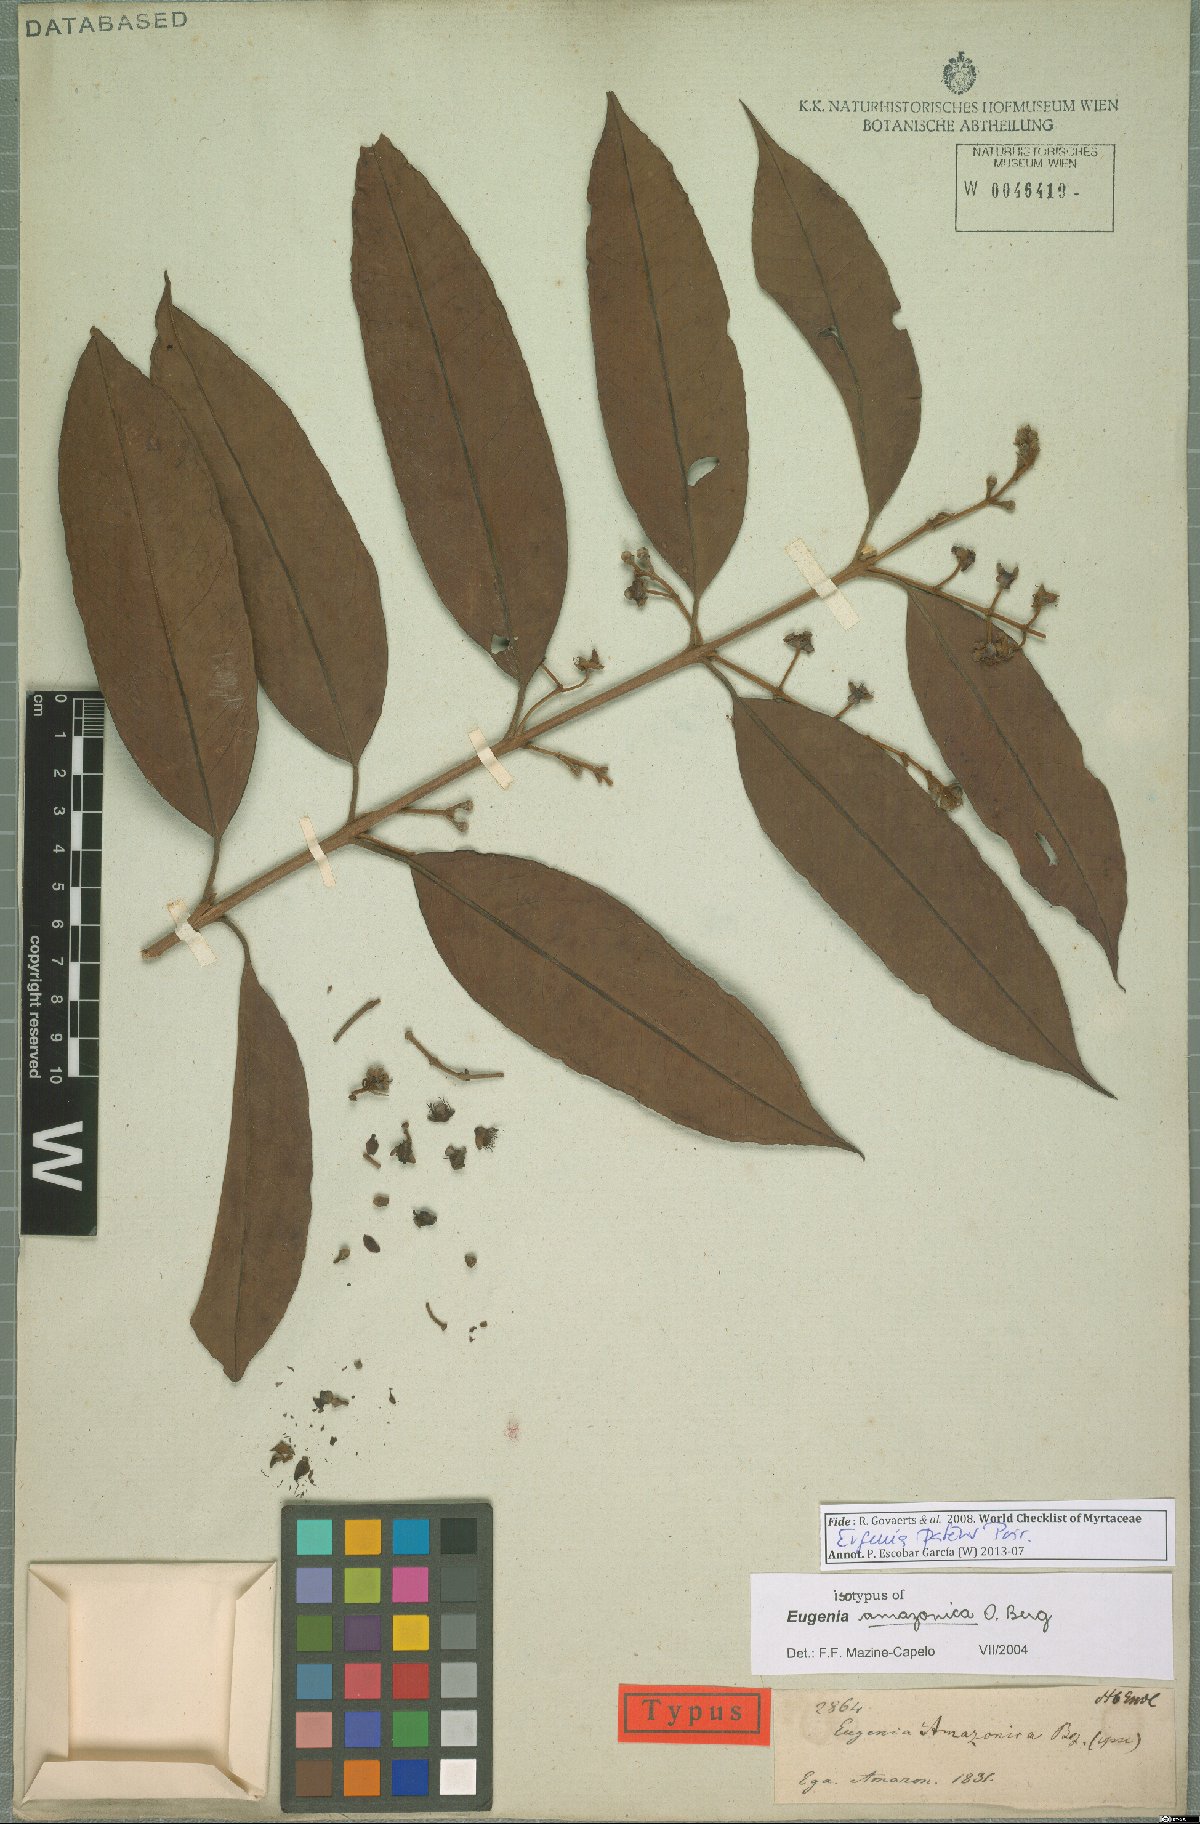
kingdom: Plantae
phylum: Tracheophyta
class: Magnoliopsida
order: Myrtales
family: Myrtaceae
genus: Eugenia
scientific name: Eugenia patens
